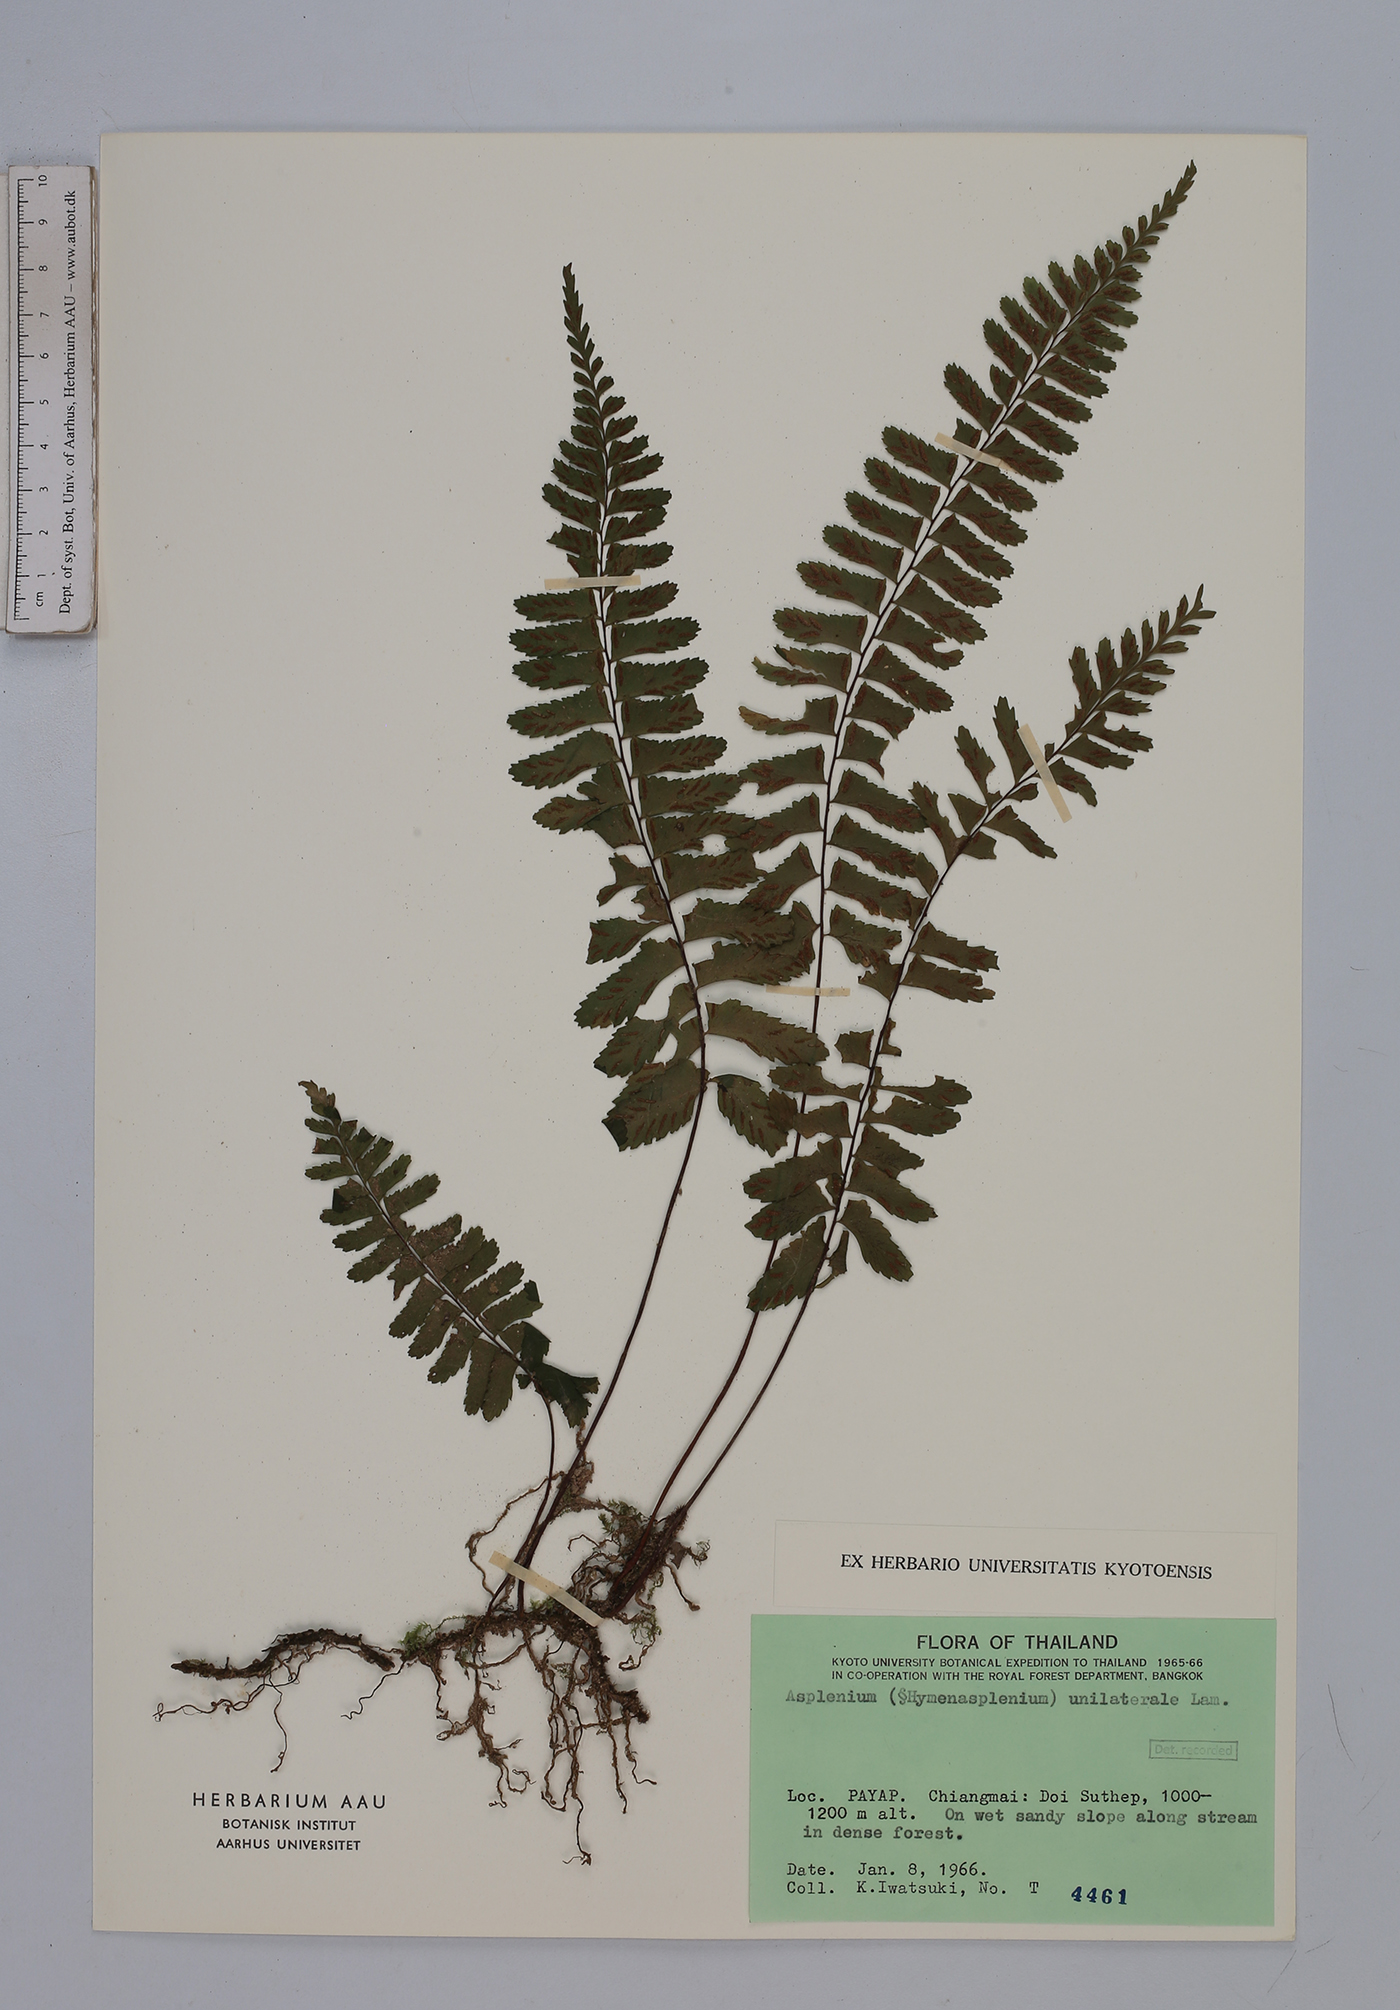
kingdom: Plantae
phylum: Tracheophyta
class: Polypodiopsida
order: Polypodiales
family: Aspleniaceae
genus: Hymenasplenium
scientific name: Hymenasplenium unilaterale
